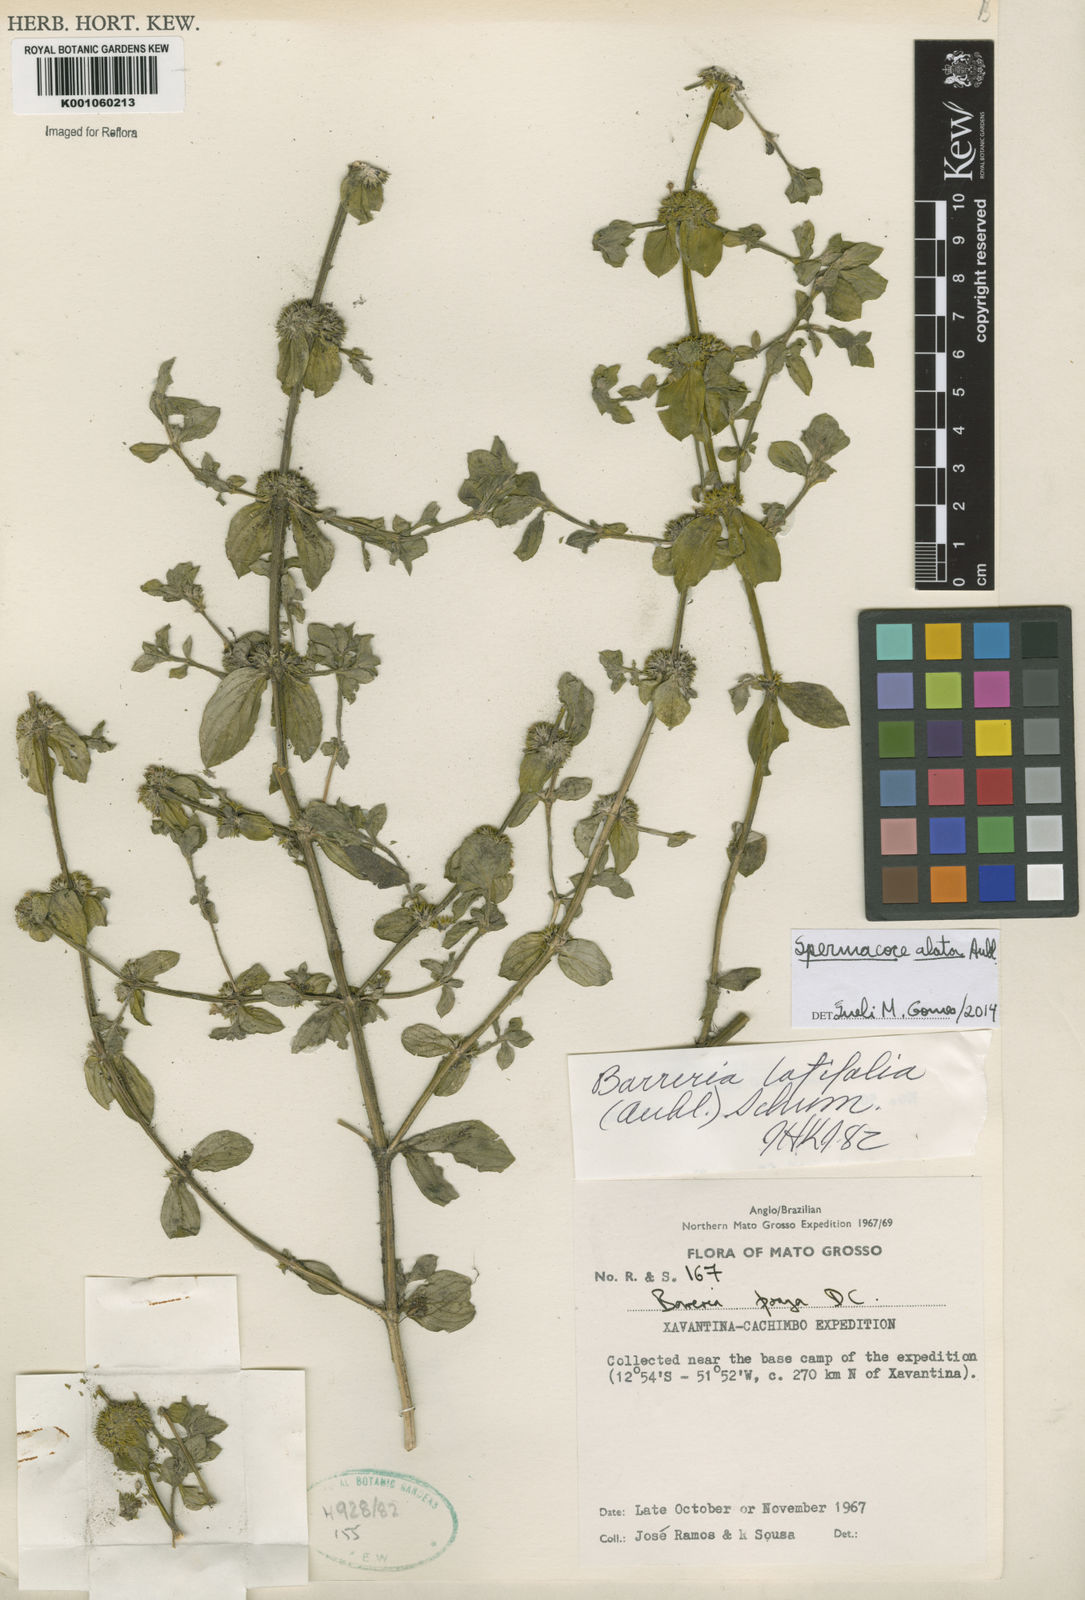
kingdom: Plantae
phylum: Tracheophyta
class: Magnoliopsida
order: Gentianales
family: Rubiaceae
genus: Spermacoce
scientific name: Spermacoce
